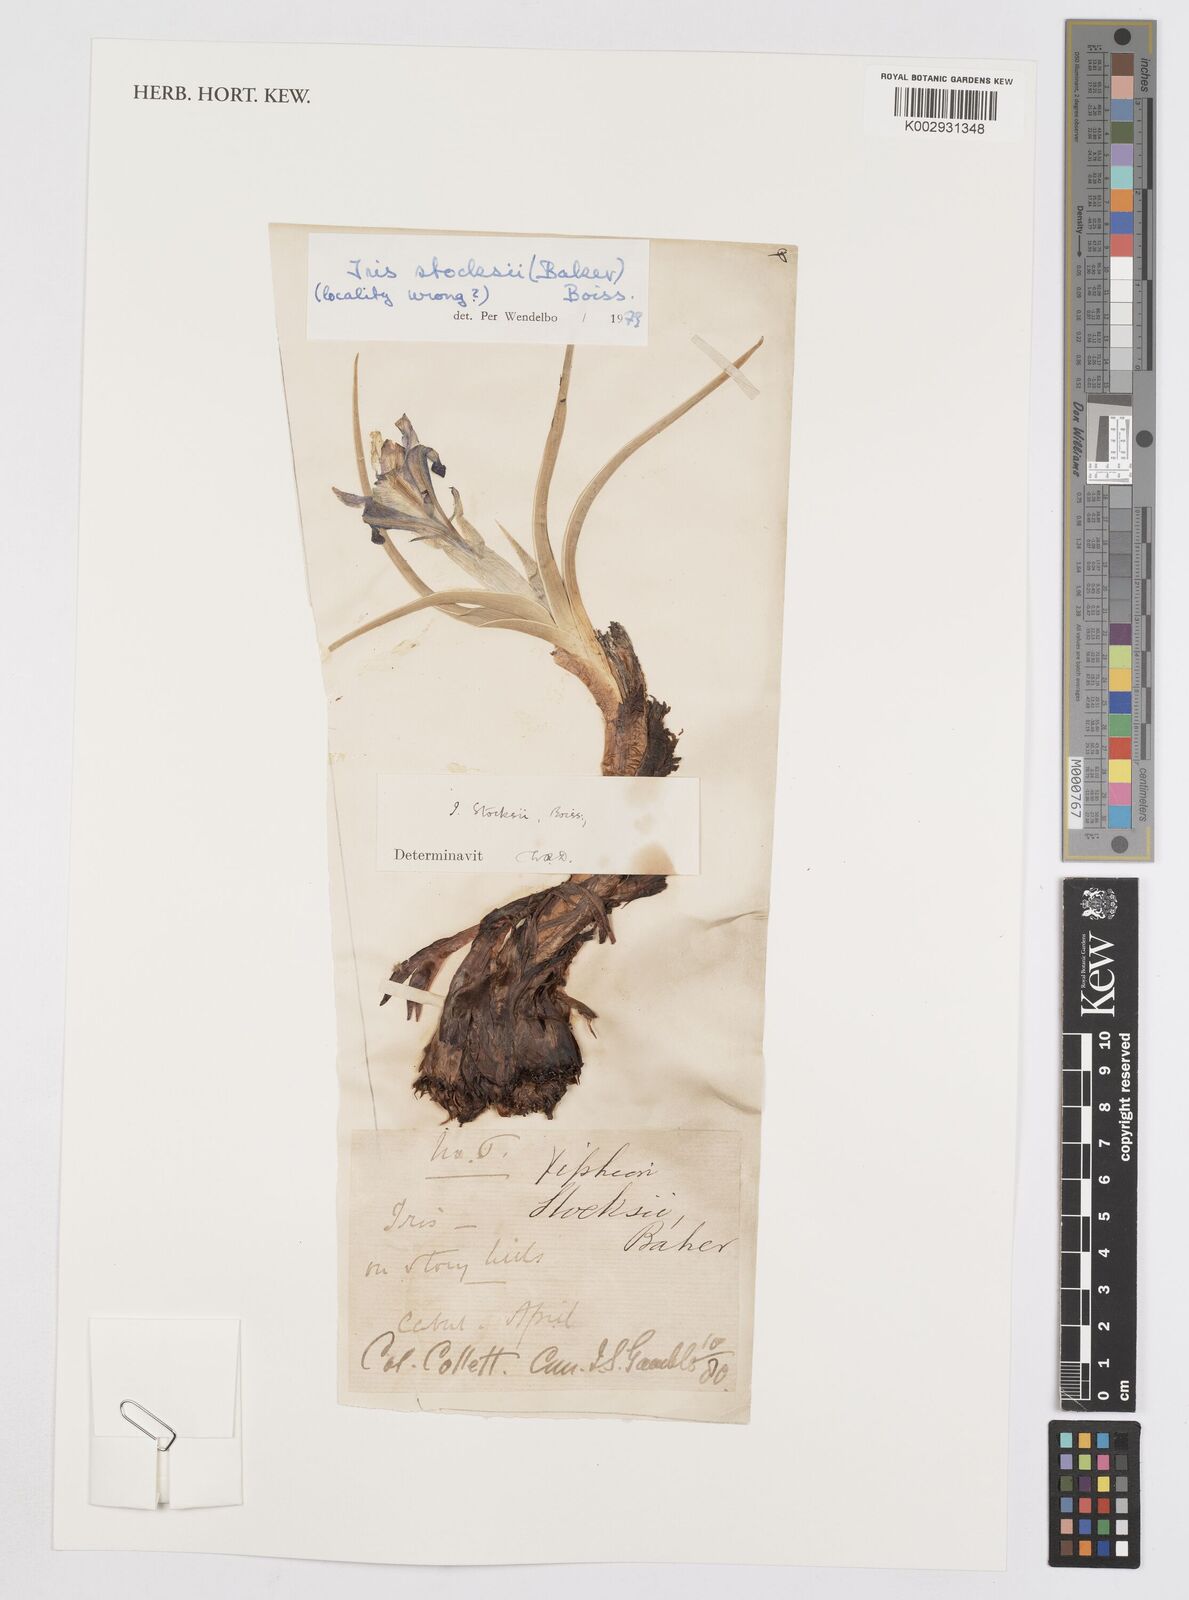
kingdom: Plantae
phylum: Tracheophyta
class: Liliopsida
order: Asparagales
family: Iridaceae
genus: Iris
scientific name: Iris stocksii
